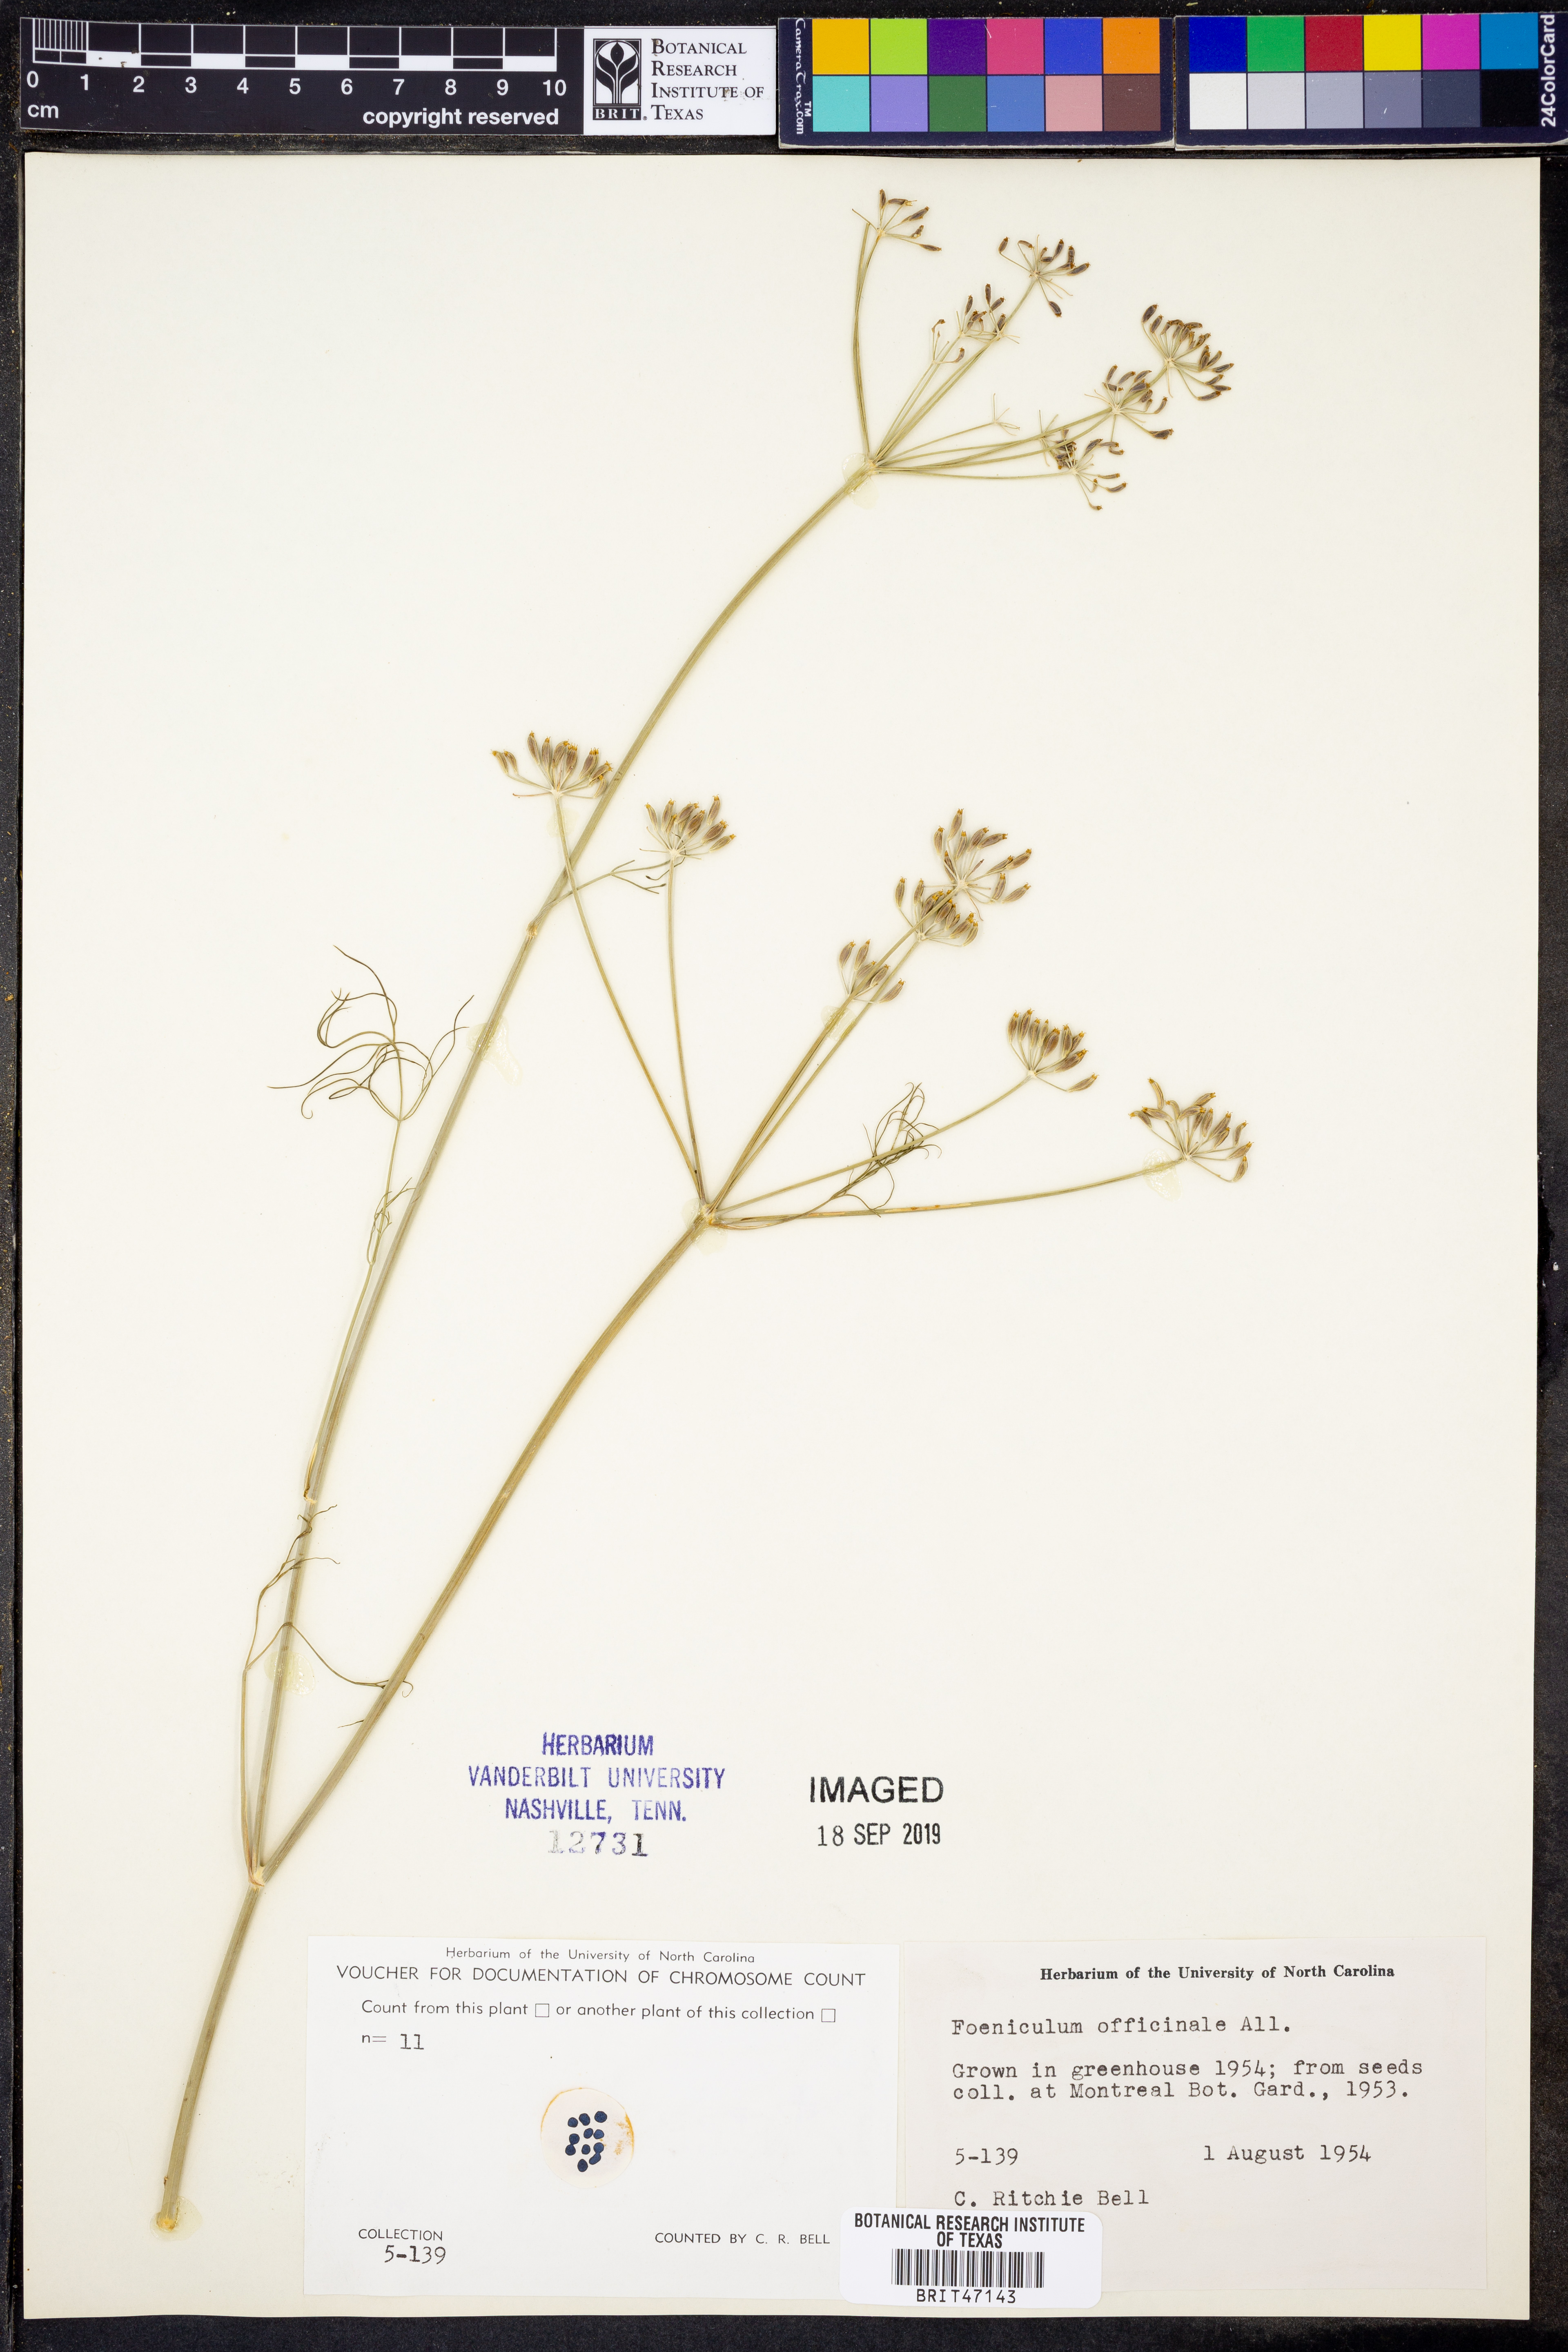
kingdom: Plantae
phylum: Tracheophyta
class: Magnoliopsida
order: Apiales
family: Apiaceae
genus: Foeniculum
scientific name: Foeniculum vulgare
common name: Fennel
